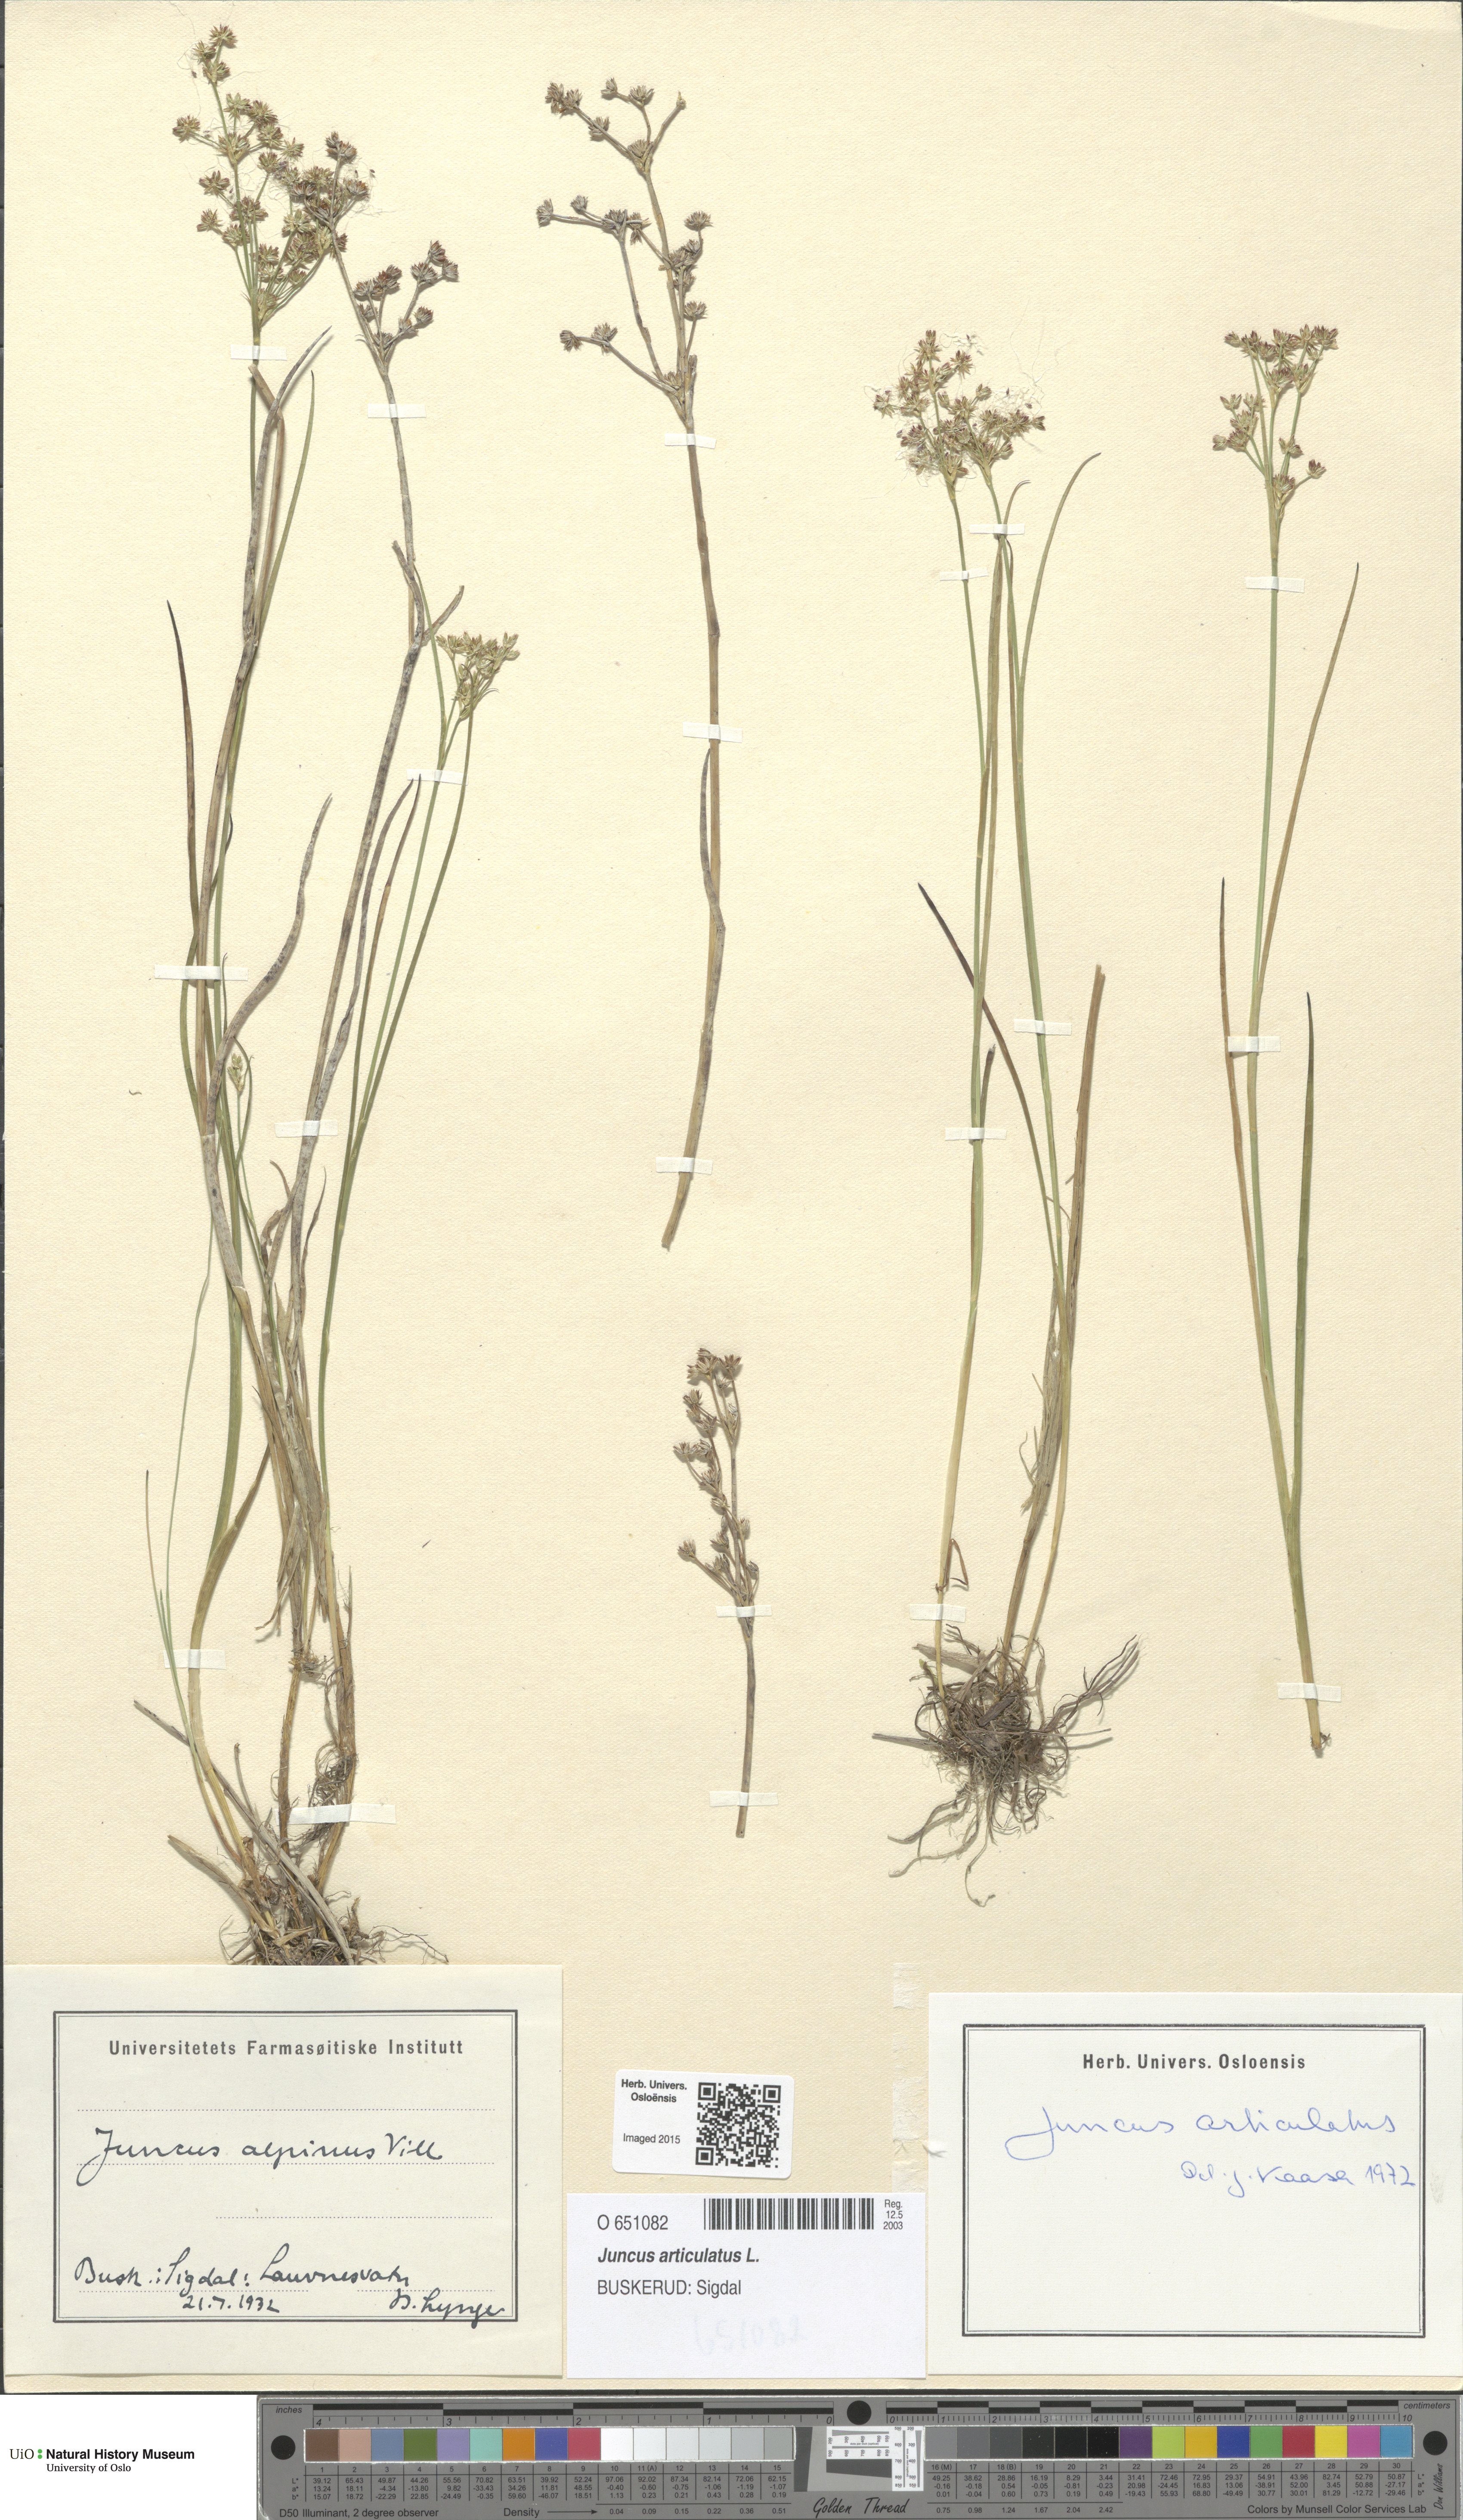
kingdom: Plantae
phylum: Tracheophyta
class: Liliopsida
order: Poales
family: Juncaceae
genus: Juncus
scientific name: Juncus articulatus
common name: Jointed rush
